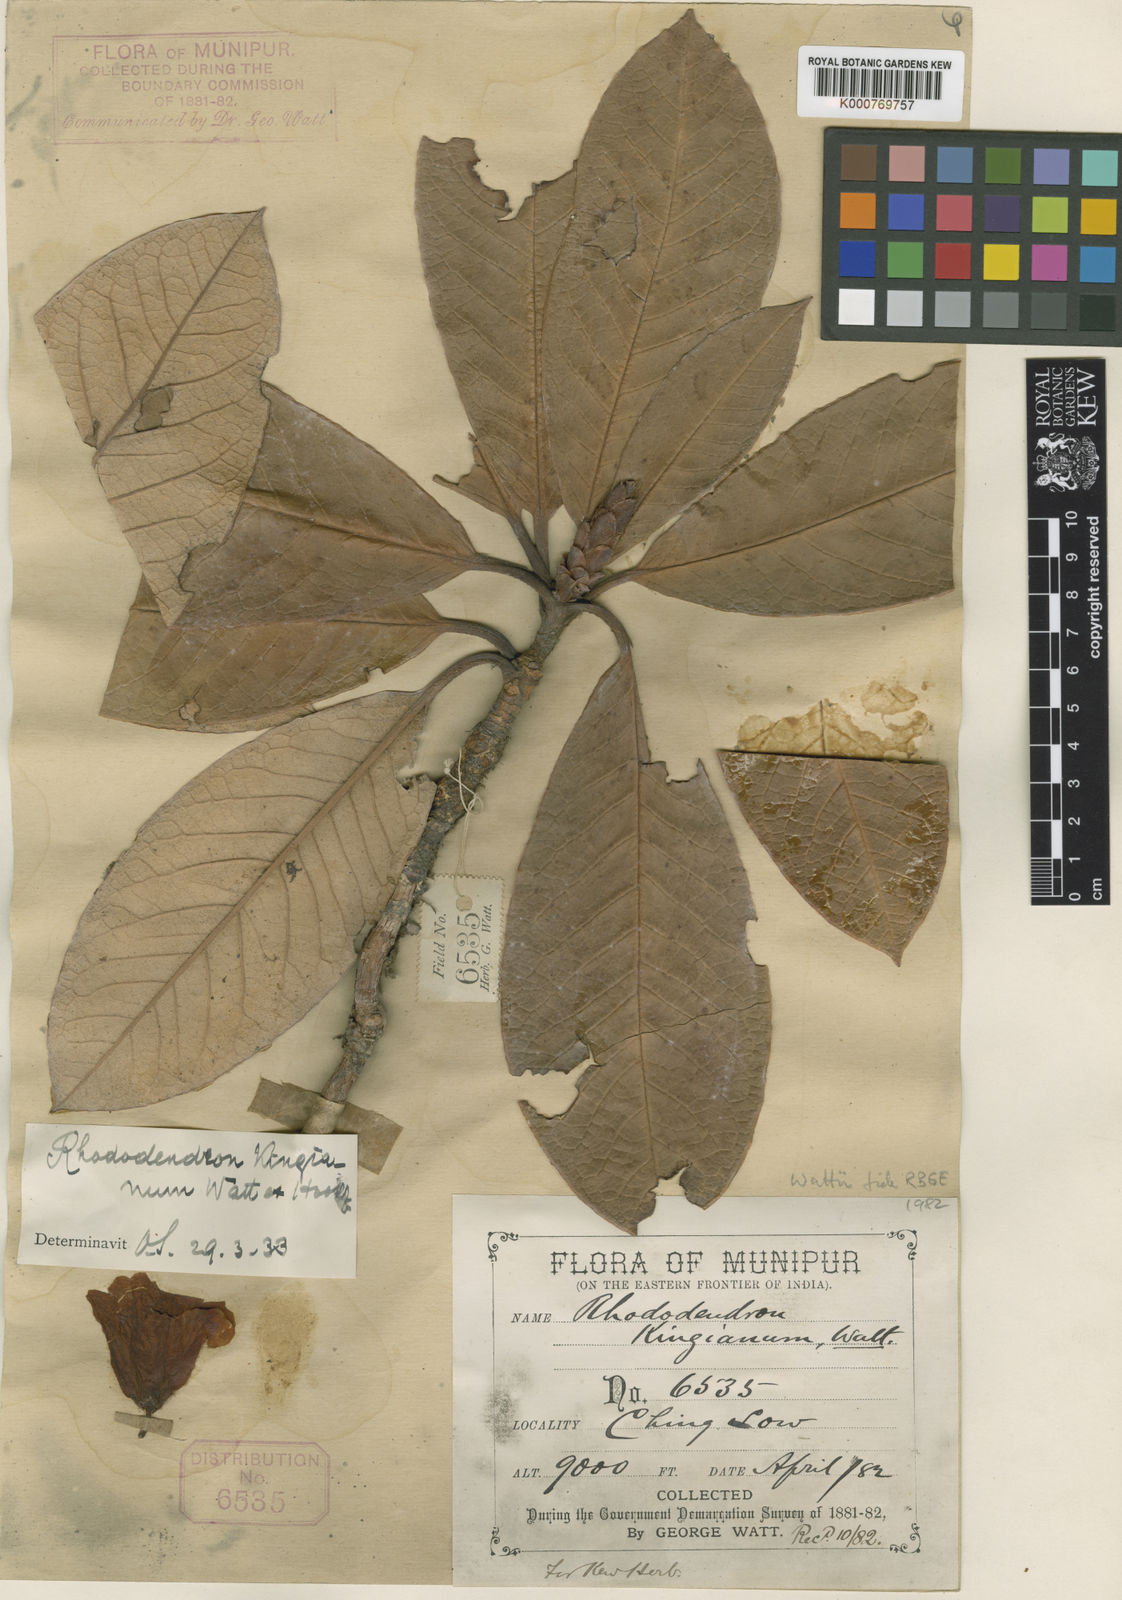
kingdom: Plantae
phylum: Tracheophyta
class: Magnoliopsida
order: Ericales
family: Ericaceae
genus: Rhododendron
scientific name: Rhododendron wattii
